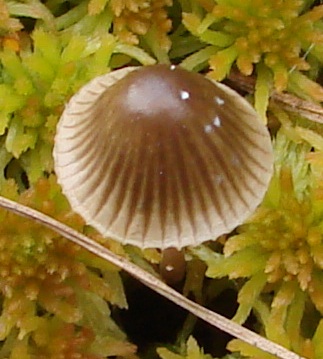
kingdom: Fungi
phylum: Basidiomycota
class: Agaricomycetes
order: Agaricales
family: Mycenaceae
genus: Mycena
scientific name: Mycena galopus
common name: hvidmælket huesvamp
